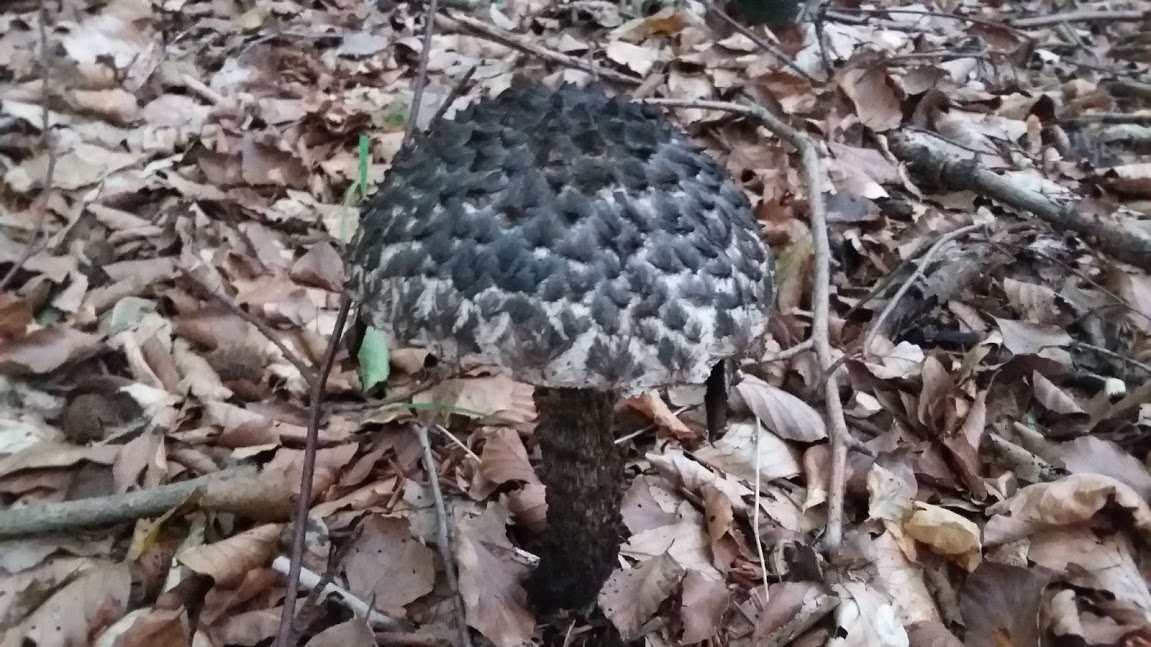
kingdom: Fungi
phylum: Basidiomycota
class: Agaricomycetes
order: Boletales
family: Boletaceae
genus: Strobilomyces
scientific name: Strobilomyces strobilaceus
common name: koglerørhat
